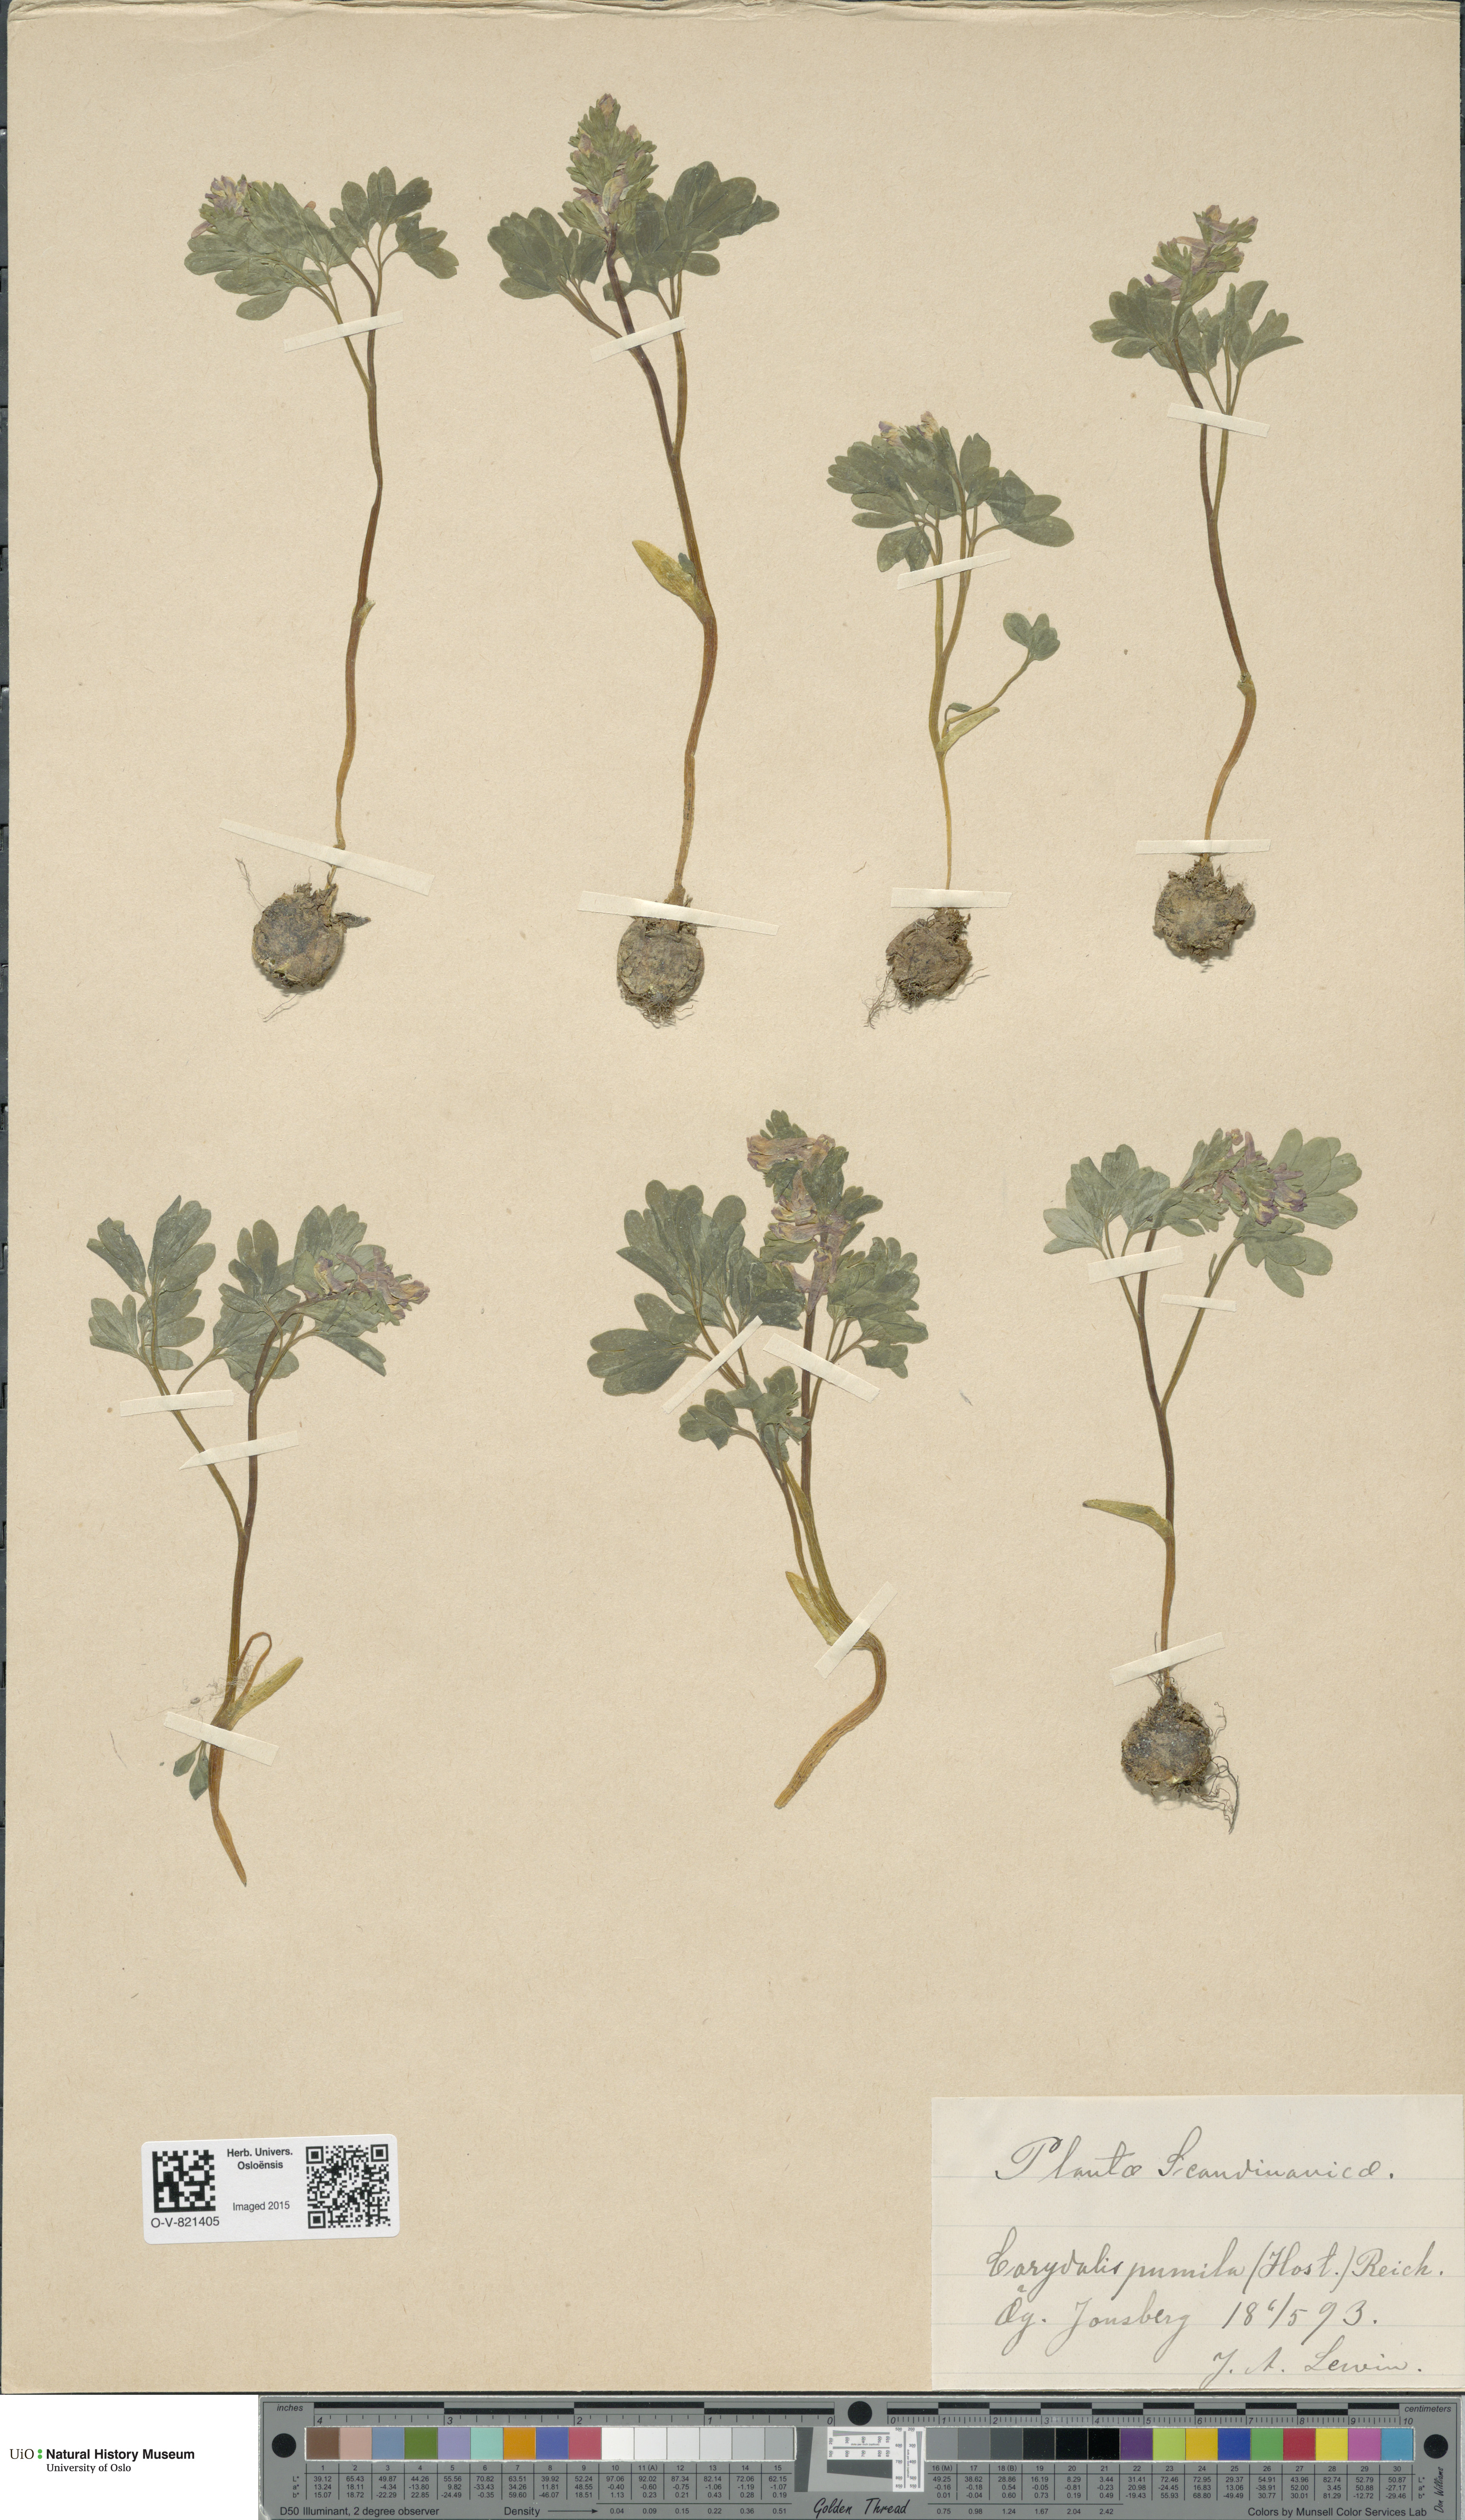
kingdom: Plantae
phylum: Tracheophyta
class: Magnoliopsida
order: Ranunculales
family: Papaveraceae
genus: Corydalis
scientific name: Corydalis pumila
